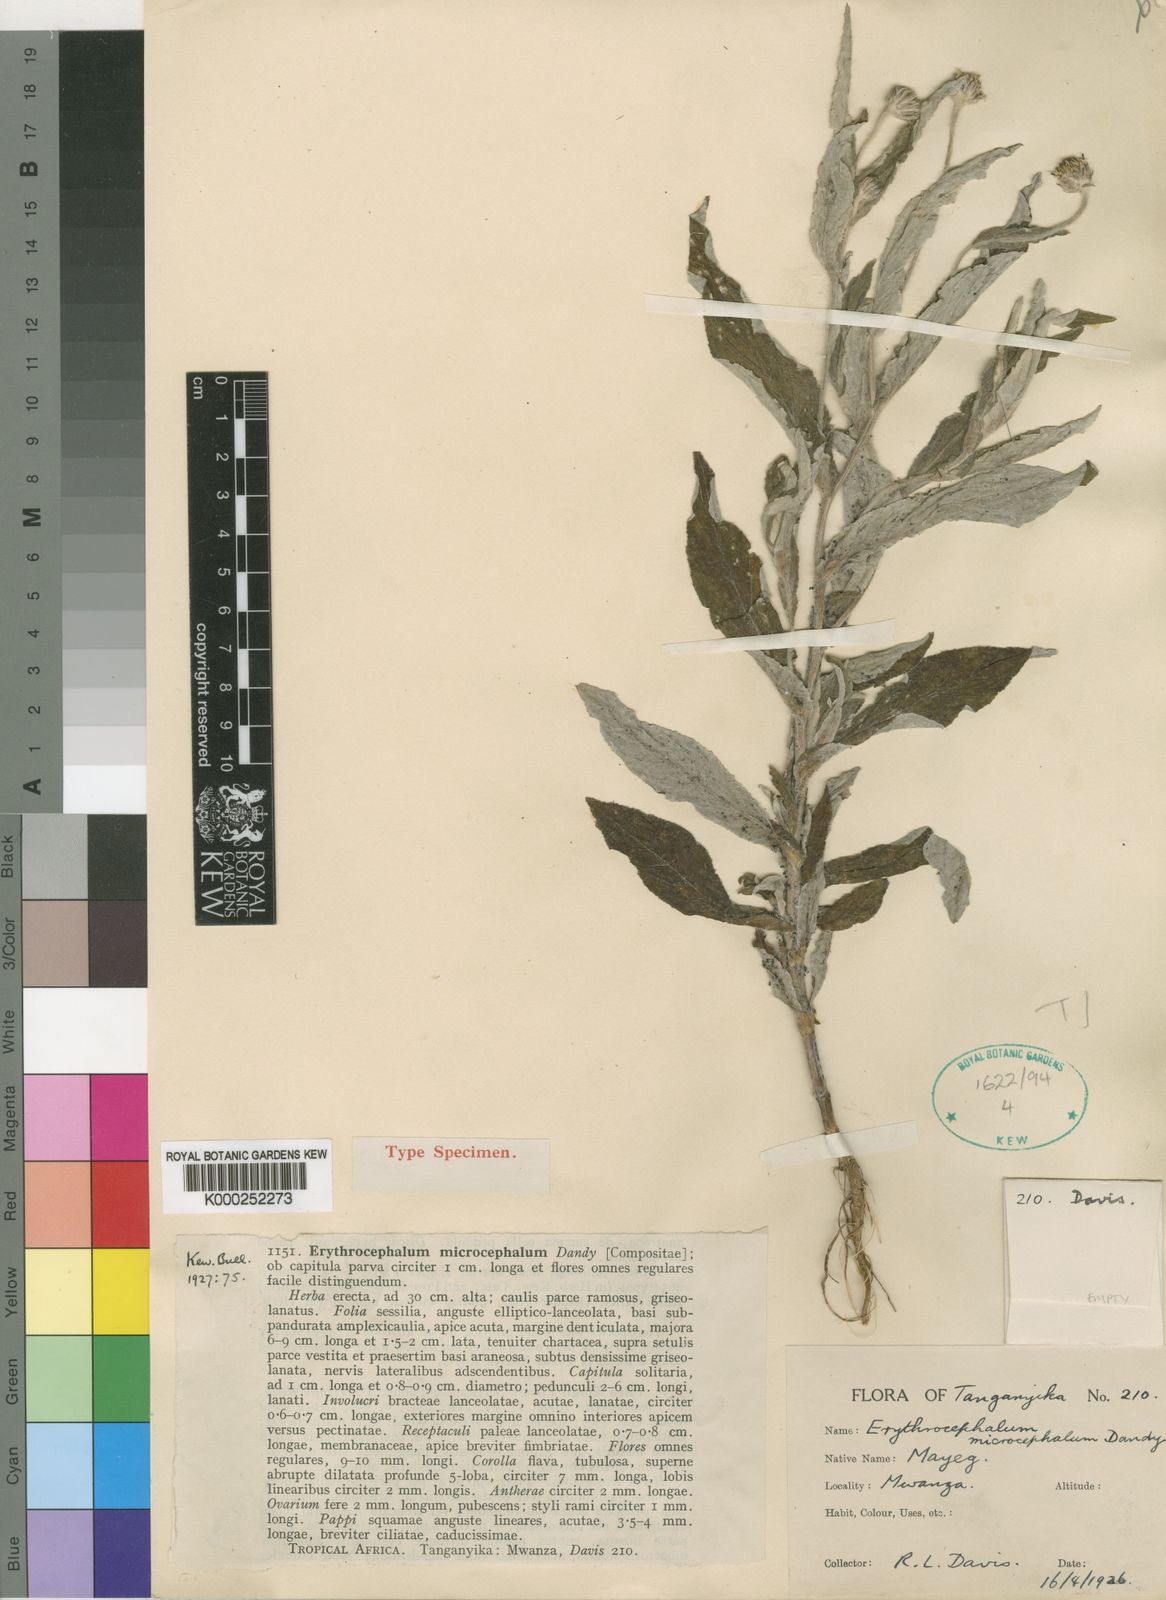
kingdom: Plantae
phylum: Tracheophyta
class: Magnoliopsida
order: Asterales
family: Asteraceae
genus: Erythrocephalum
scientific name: Erythrocephalum microcephalum
